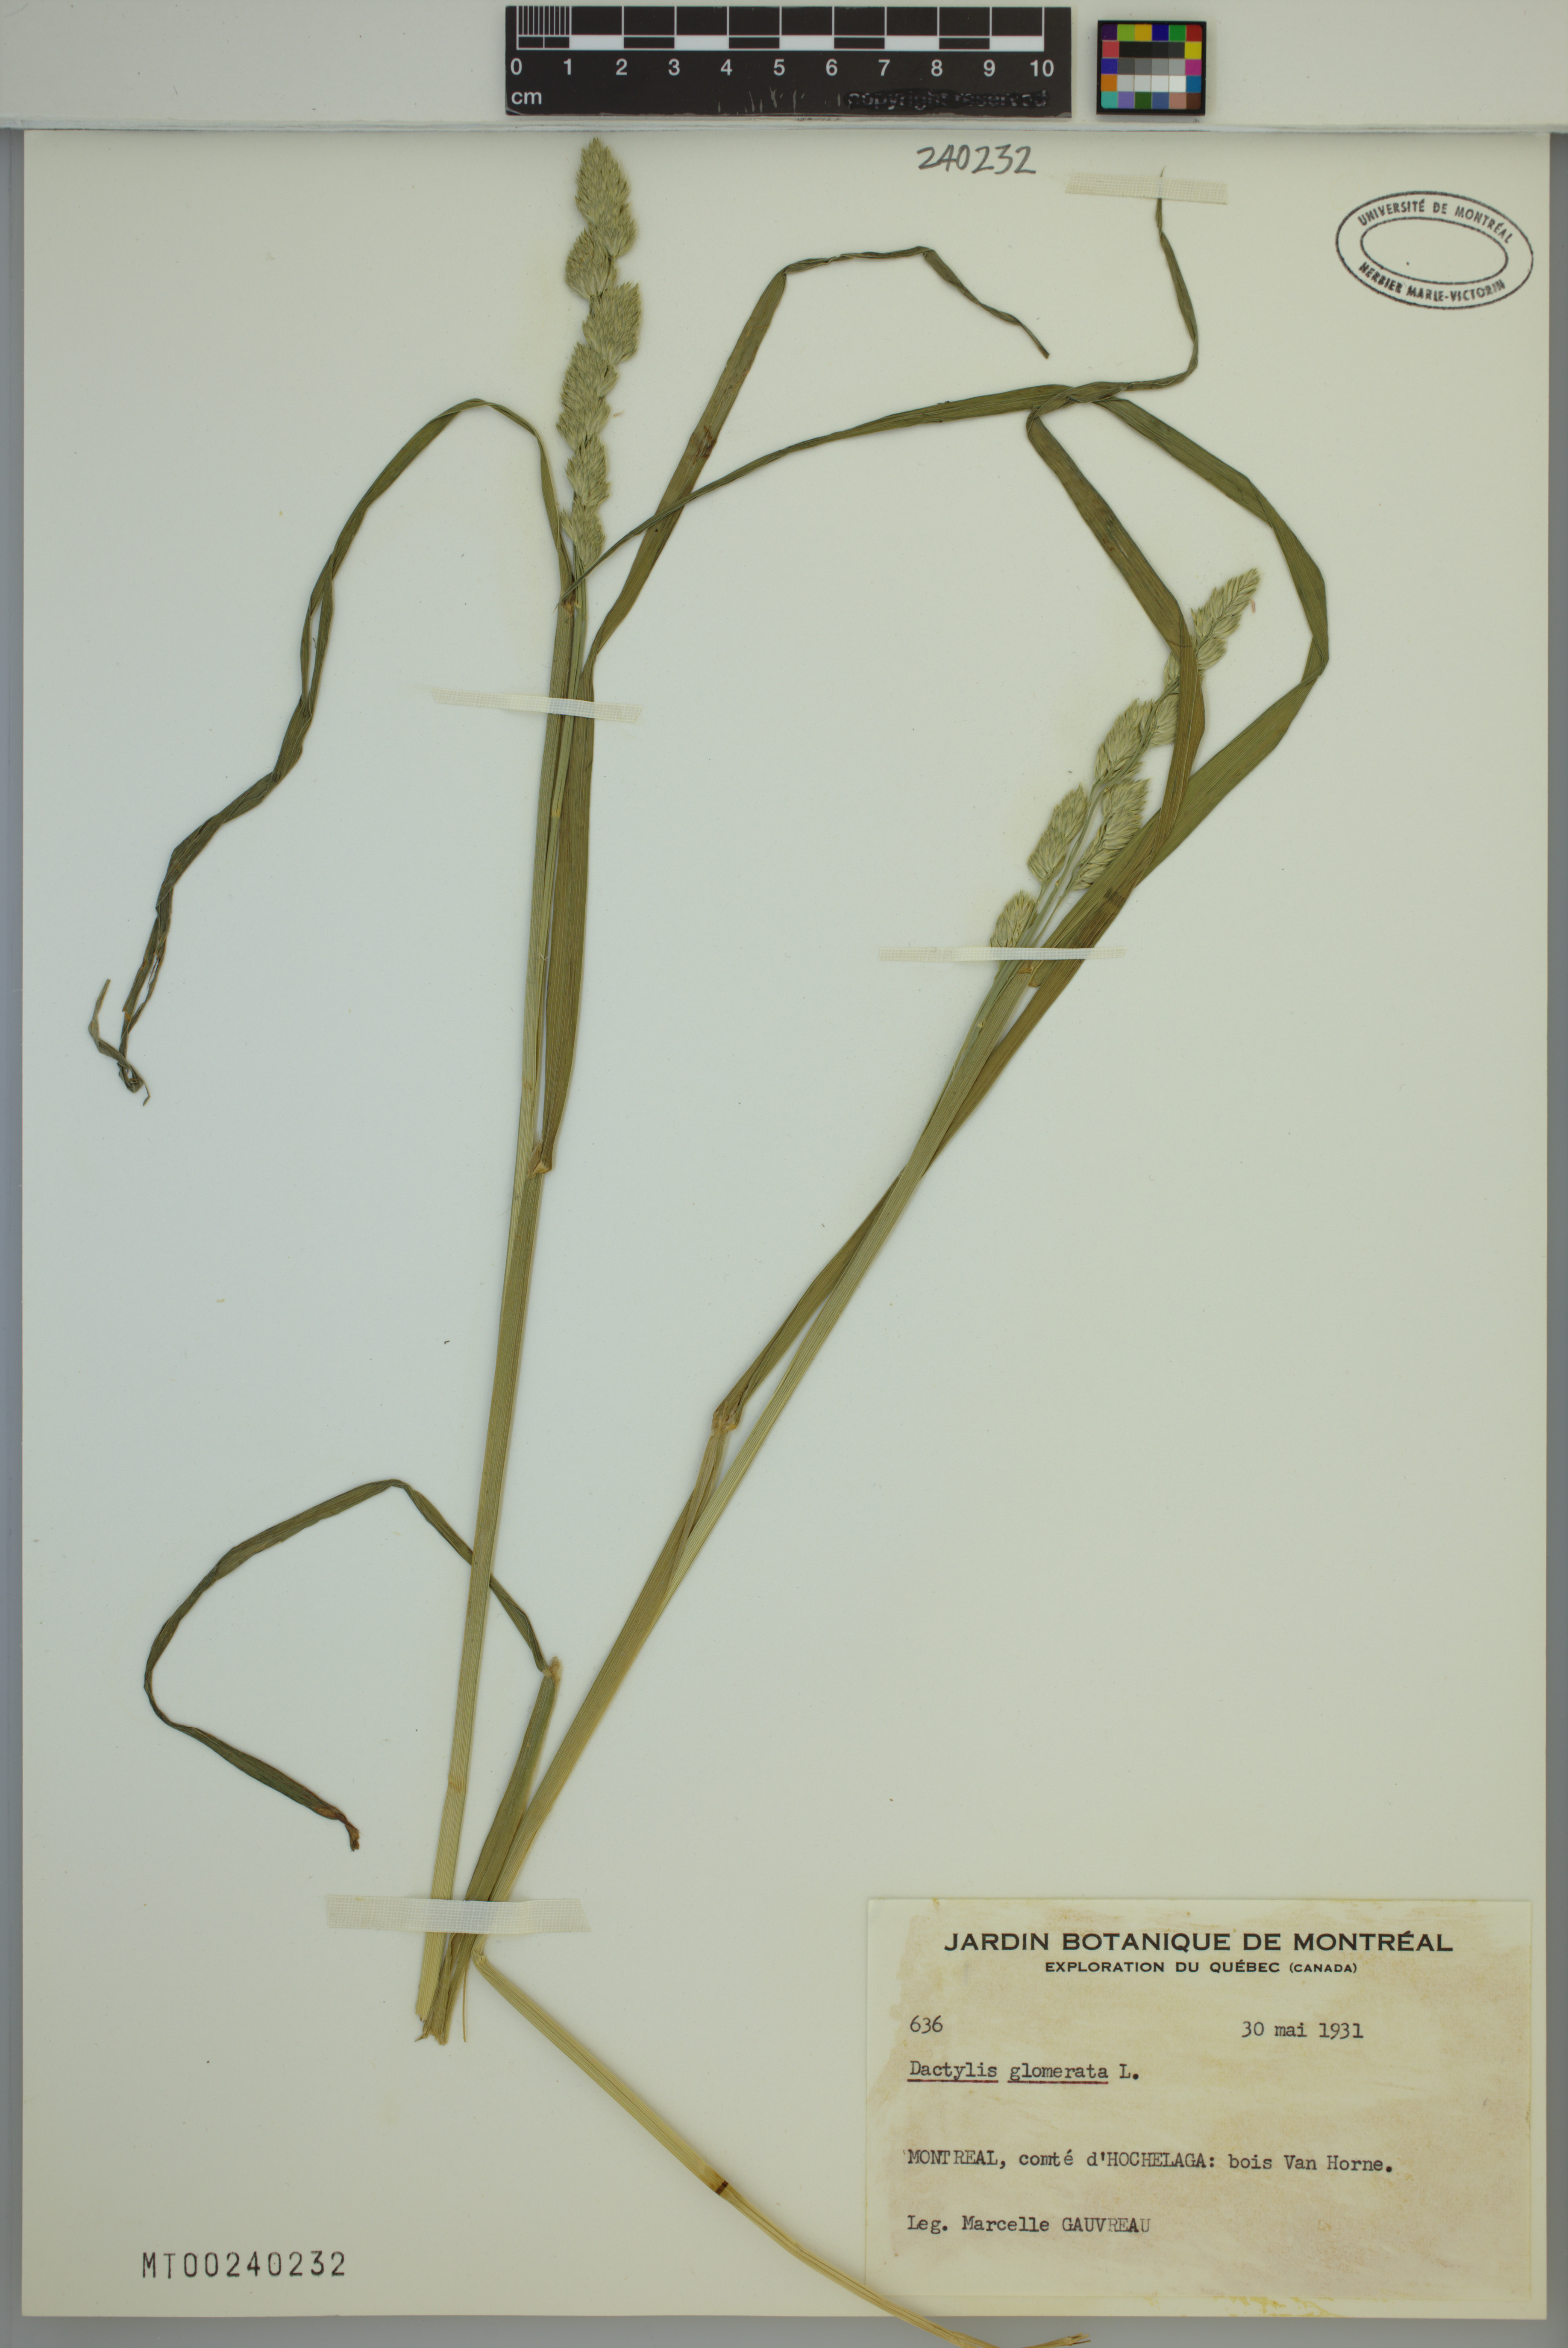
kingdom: Plantae
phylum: Tracheophyta
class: Liliopsida
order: Poales
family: Poaceae
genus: Dactylis
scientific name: Dactylis glomerata
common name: Orchardgrass
